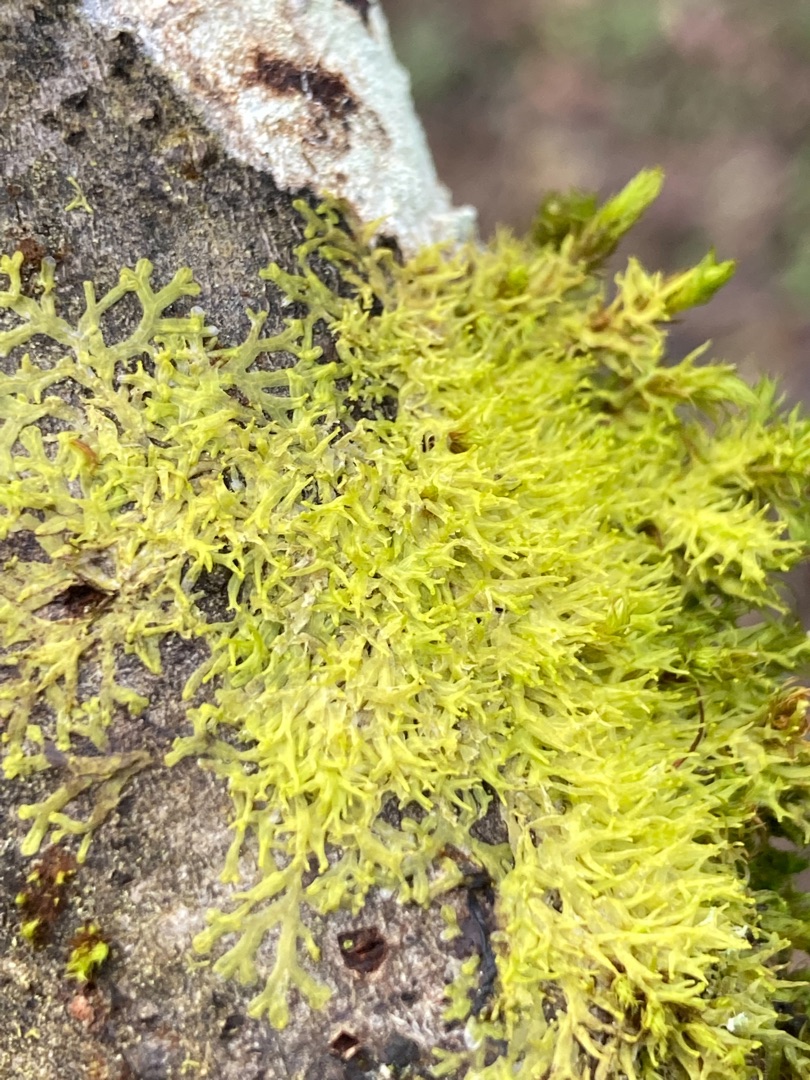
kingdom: Plantae
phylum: Marchantiophyta
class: Jungermanniopsida
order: Metzgeriales
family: Aneuraceae
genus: Riccardia
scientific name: Riccardia palmata
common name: Blågrøn gaffelløv
